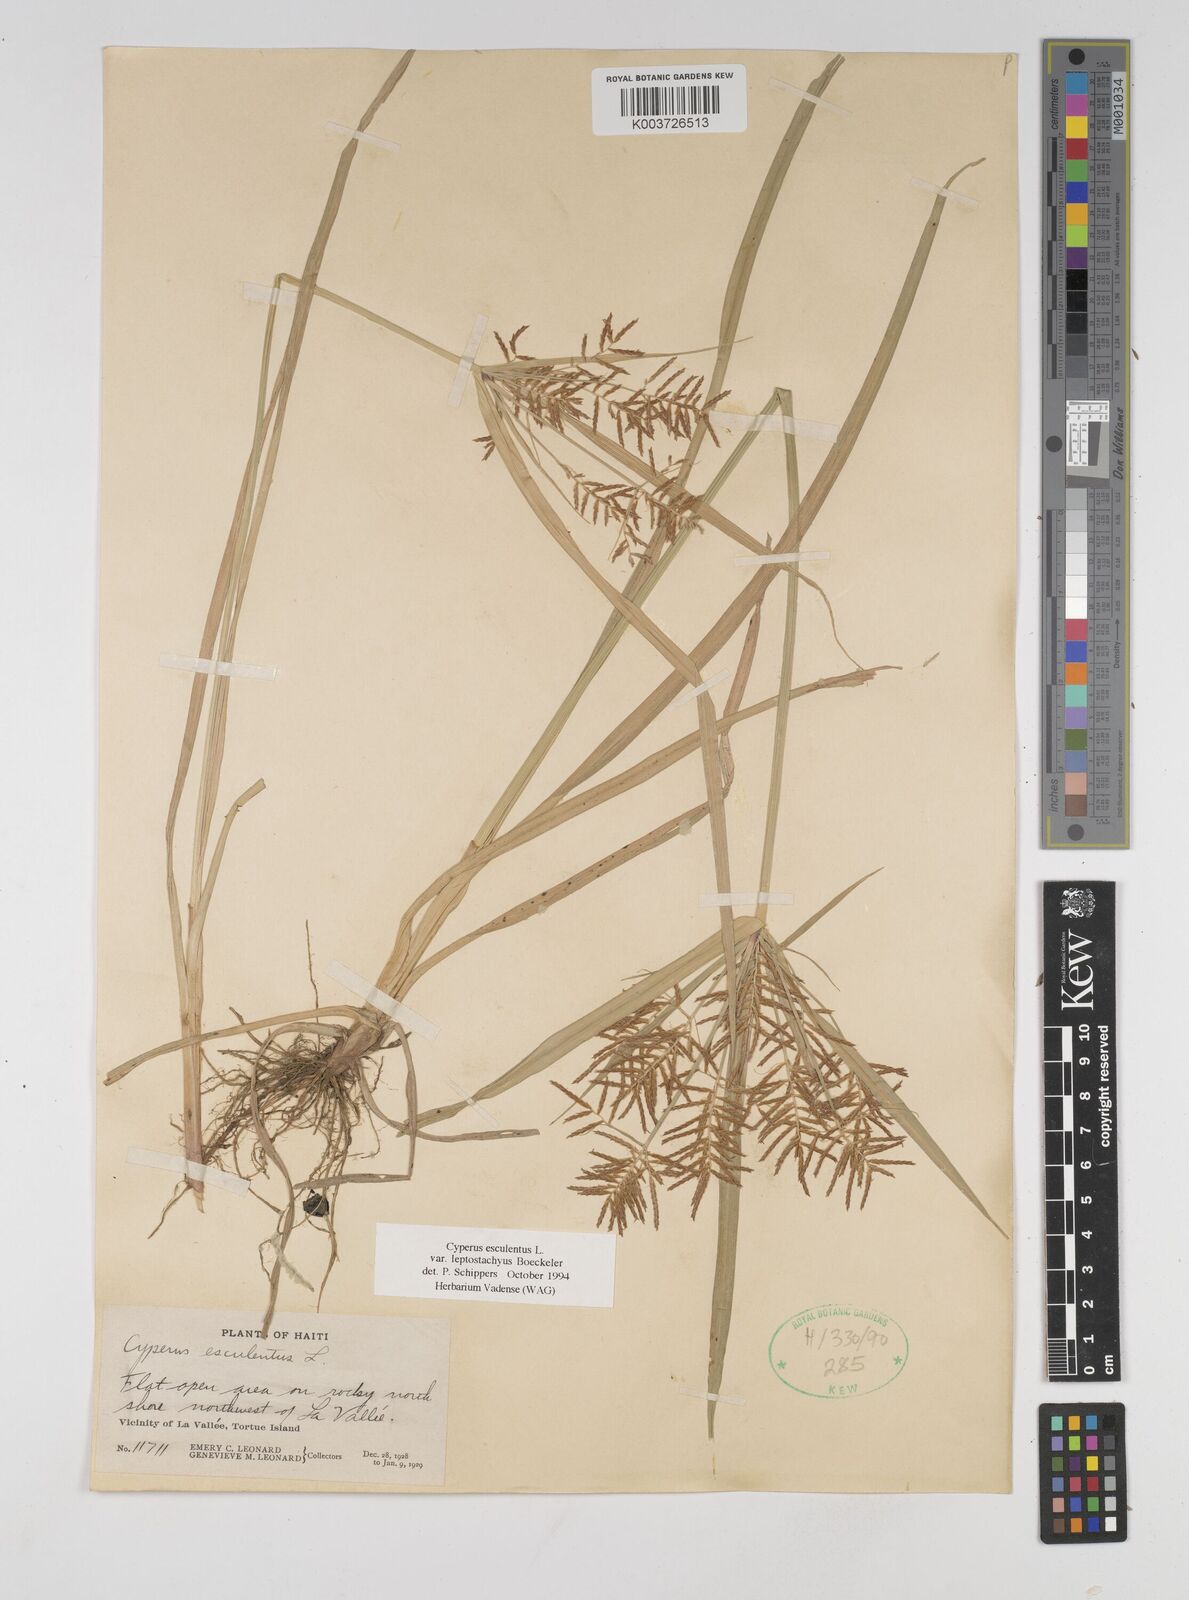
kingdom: Plantae
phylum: Tracheophyta
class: Liliopsida
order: Poales
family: Cyperaceae
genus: Cyperus
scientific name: Cyperus esculentus
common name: Yellow nutsedge
